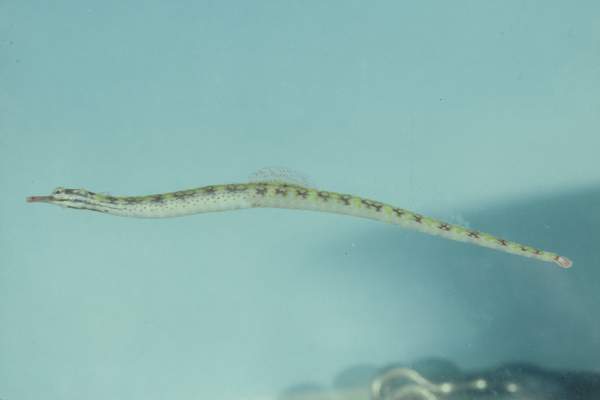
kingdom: Animalia
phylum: Chordata
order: Syngnathiformes
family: Syngnathidae
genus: Corythoichthys
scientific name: Corythoichthys flavofasciatus
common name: Banded pipefish
